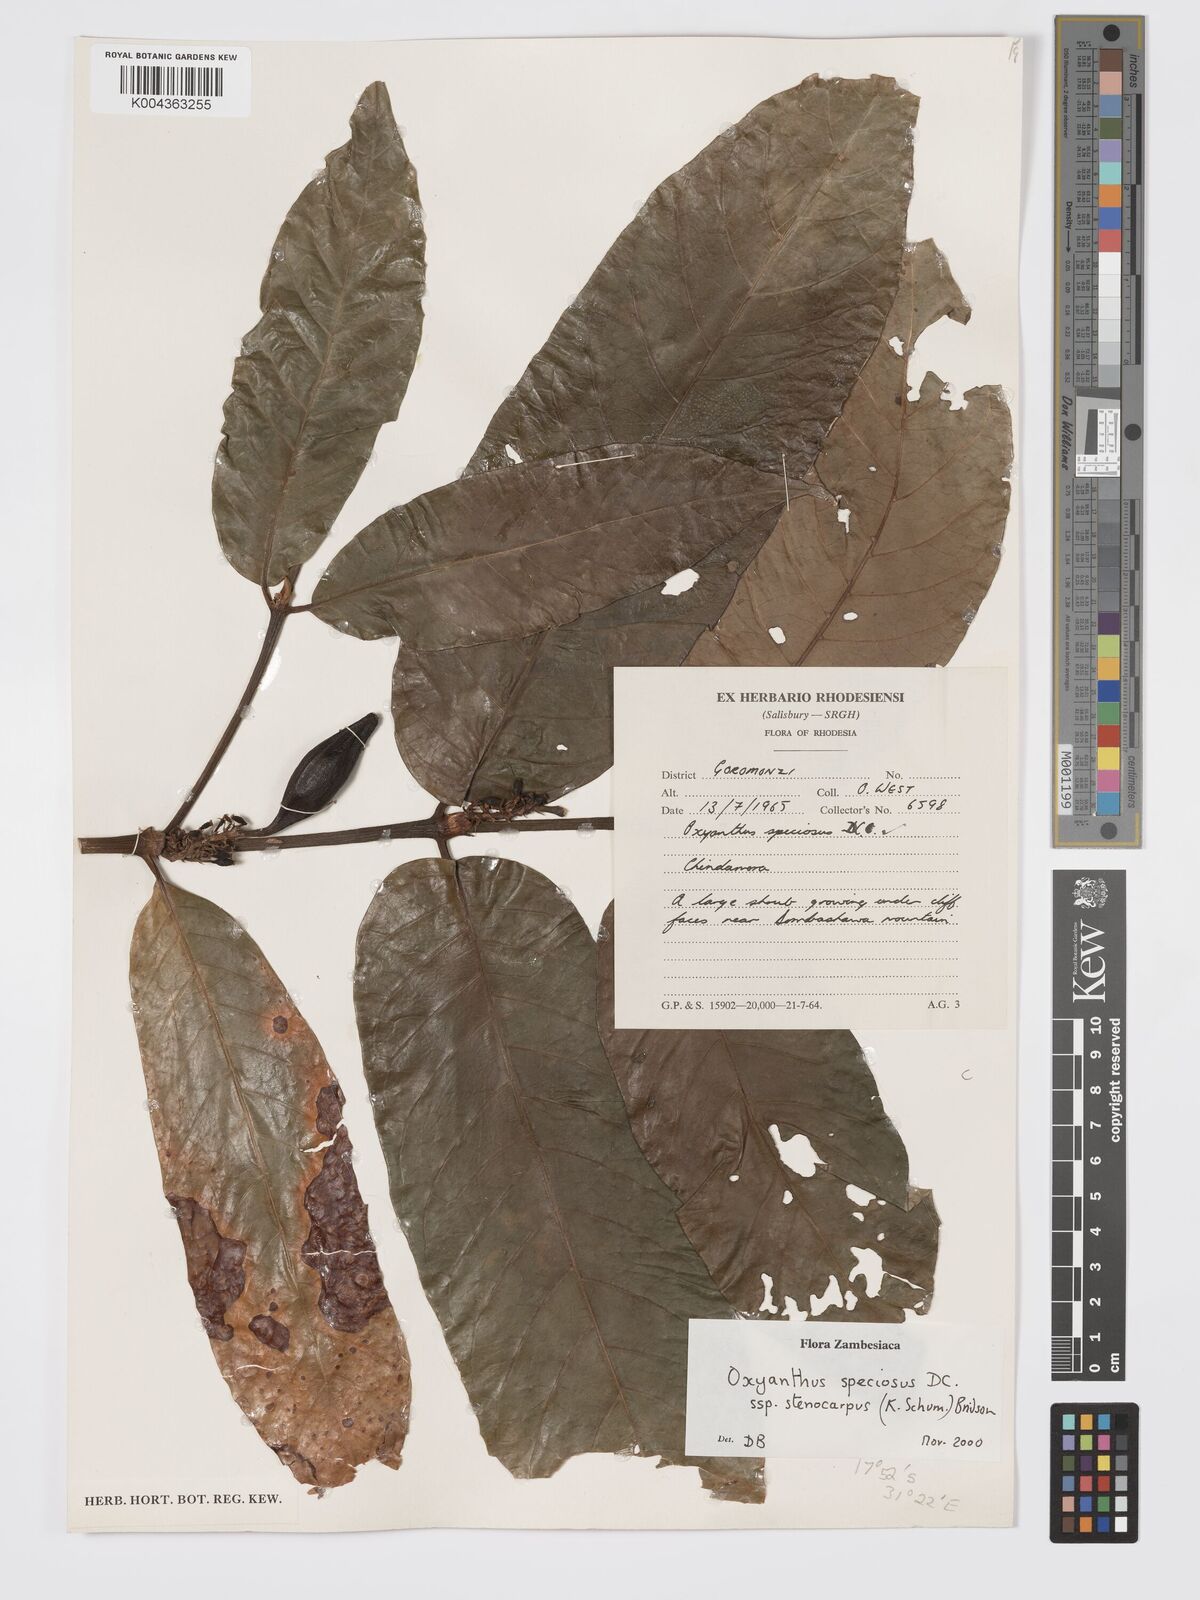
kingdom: Plantae
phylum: Tracheophyta
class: Magnoliopsida
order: Gentianales
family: Rubiaceae
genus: Oxyanthus
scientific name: Oxyanthus speciosus
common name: Whipstick loquat
